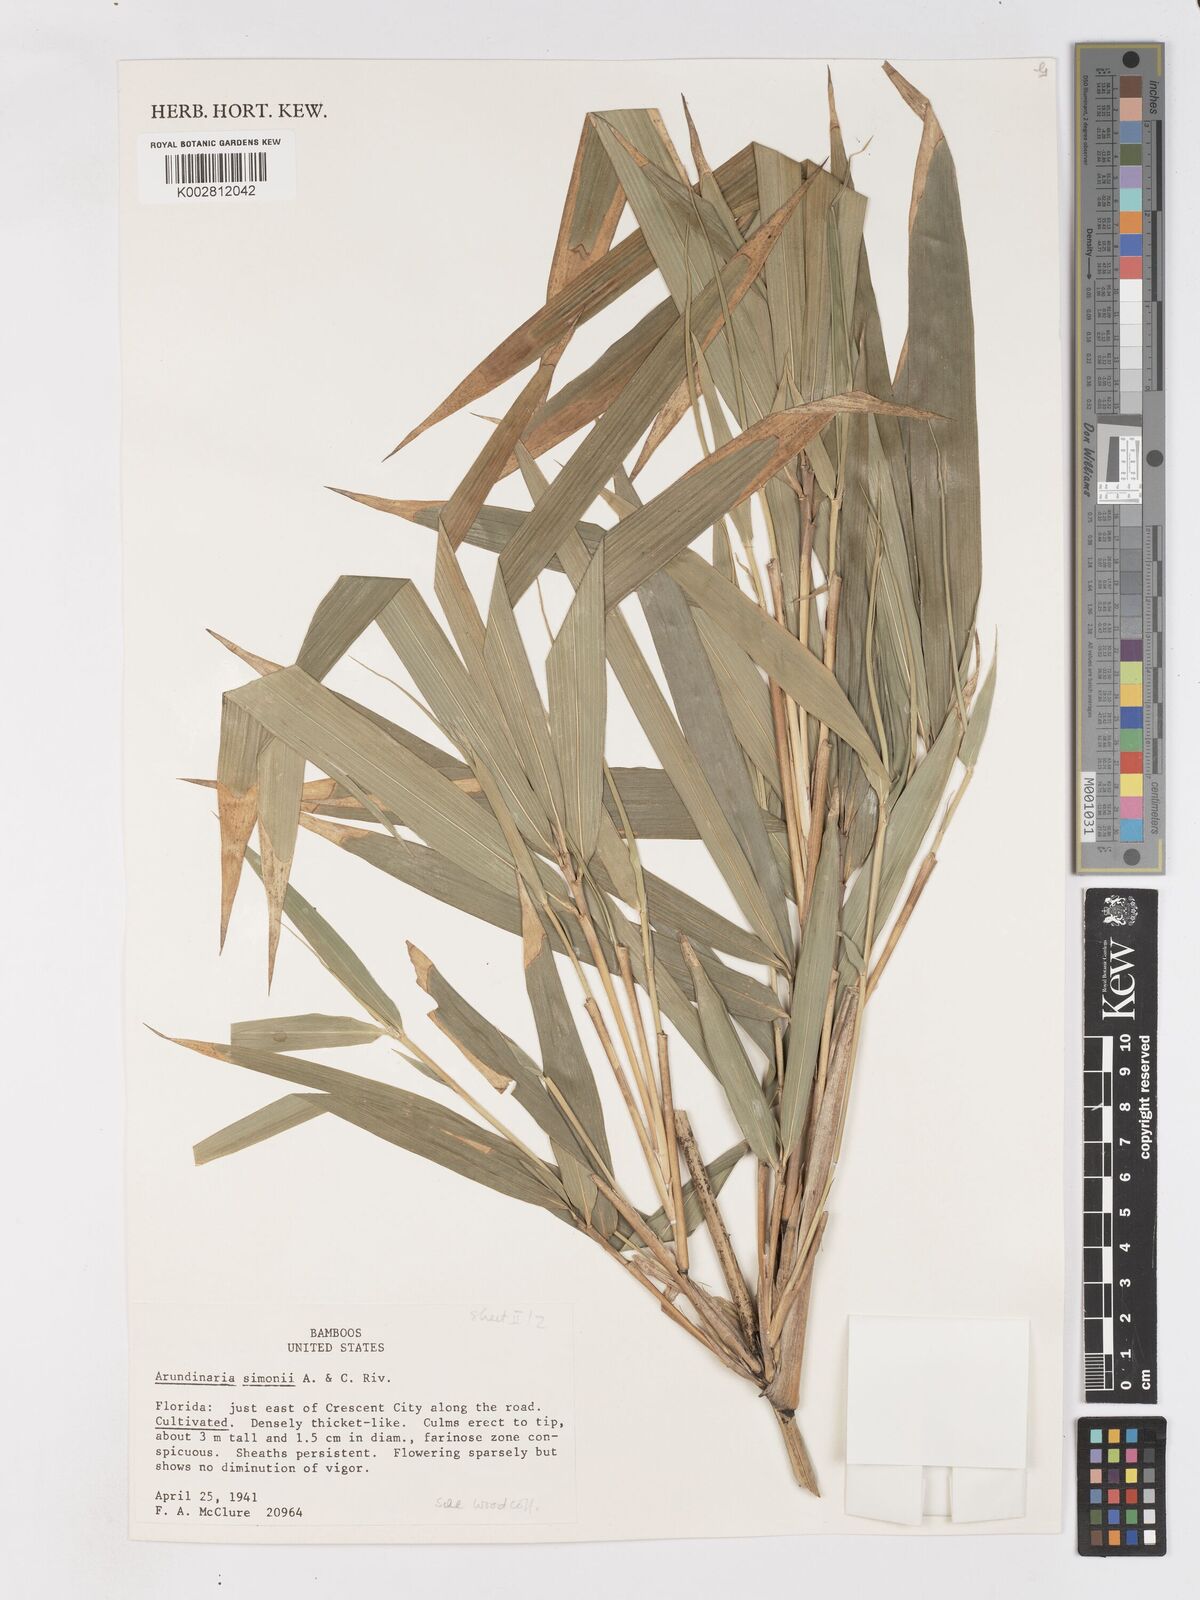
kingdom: Plantae
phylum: Tracheophyta
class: Liliopsida
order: Poales
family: Poaceae
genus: Pleioblastus
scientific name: Pleioblastus simonii
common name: Simon bamboo
